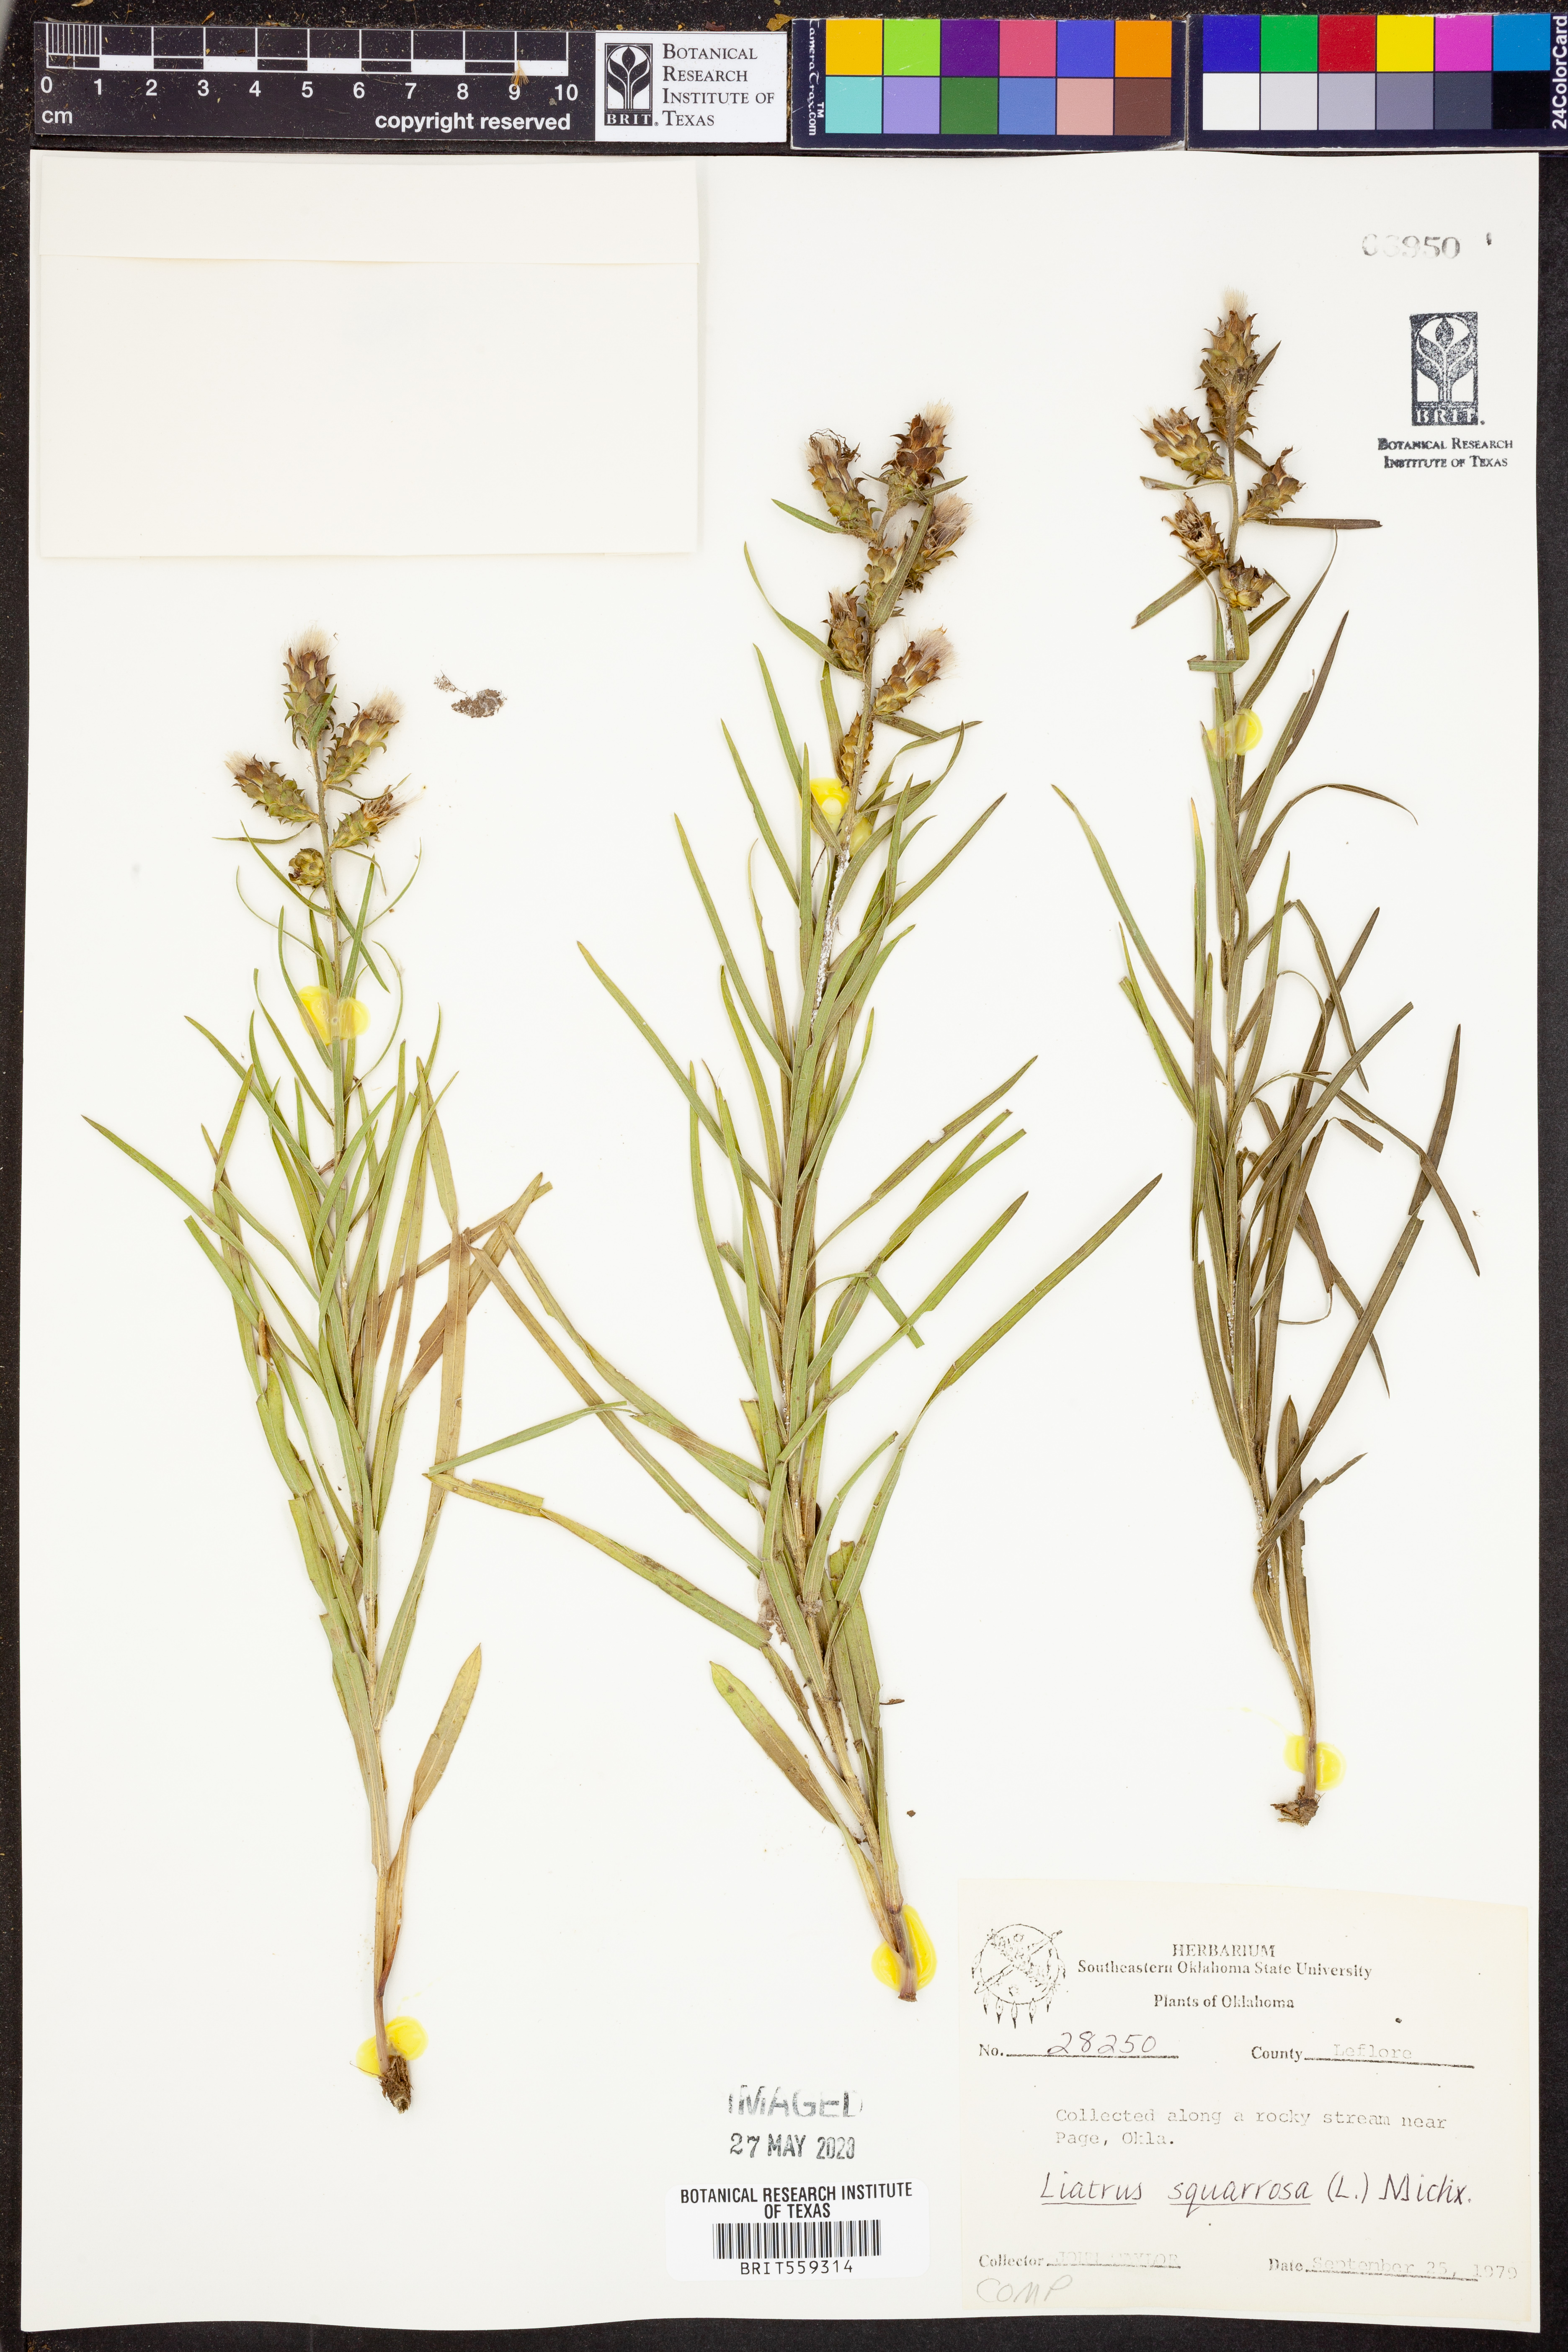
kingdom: Plantae
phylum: Tracheophyta
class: Magnoliopsida
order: Asterales
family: Asteraceae
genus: Liatris
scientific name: Liatris squarrosa
